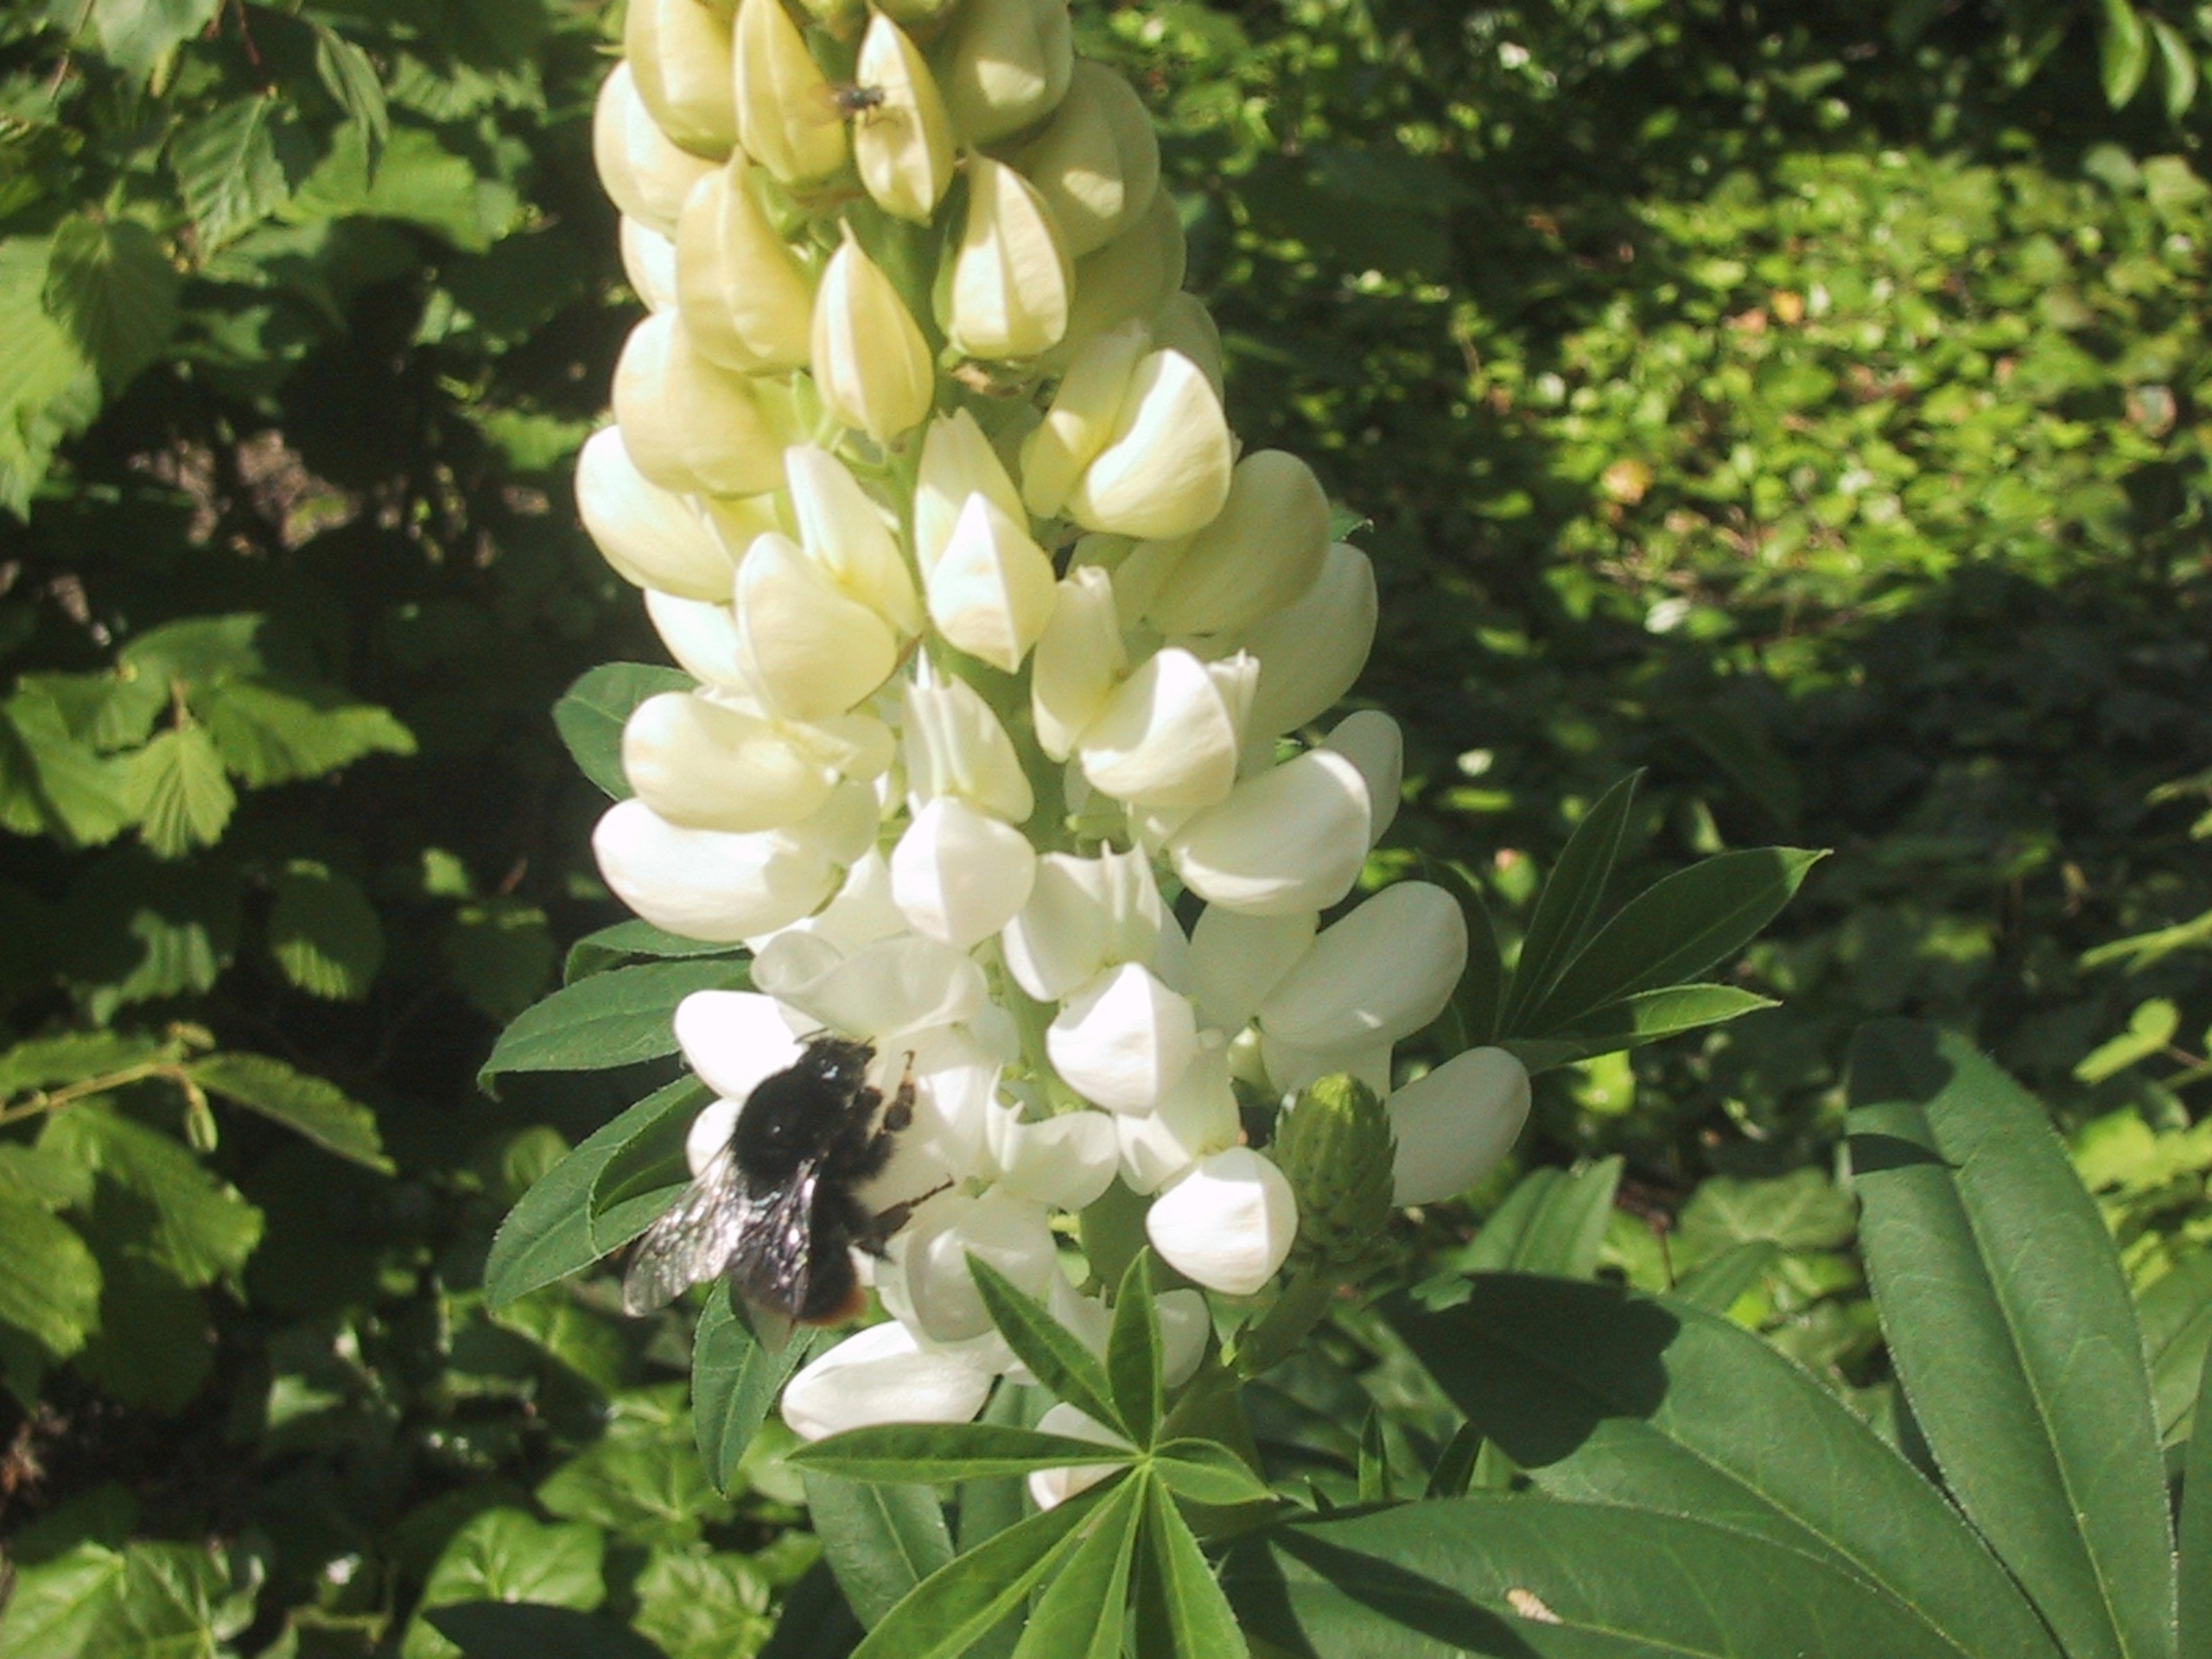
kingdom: Plantae
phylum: Tracheophyta
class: Magnoliopsida
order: Fabales
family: Fabaceae
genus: Lupinus
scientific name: Lupinus polyphyllus
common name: Mangebladet lupin
